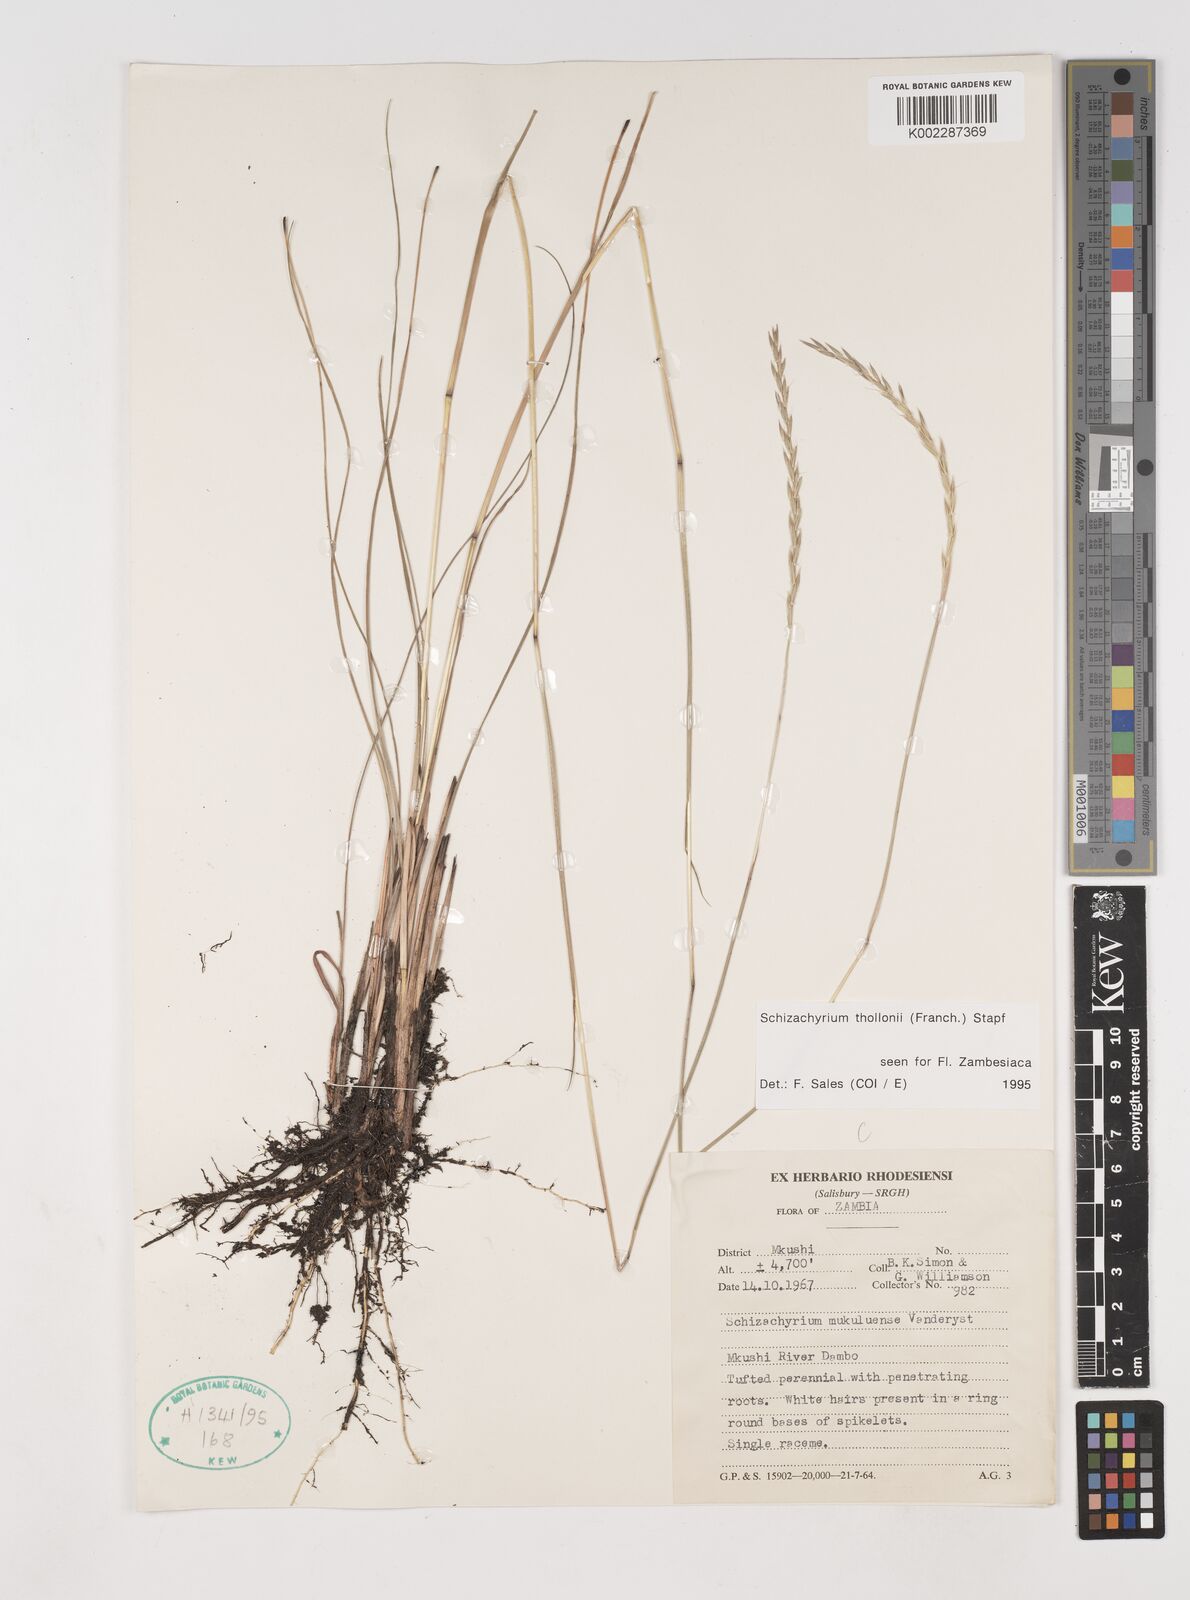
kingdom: Plantae
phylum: Tracheophyta
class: Liliopsida
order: Poales
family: Poaceae
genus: Schizachyrium
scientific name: Schizachyrium thollonii
